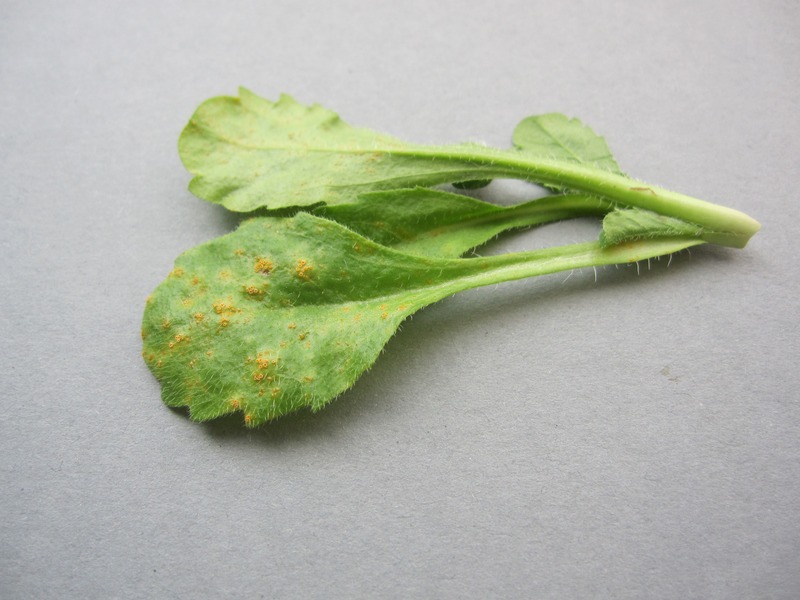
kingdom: Fungi
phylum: Basidiomycota
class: Pucciniomycetes
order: Pucciniales
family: Pucciniaceae
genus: Puccinia
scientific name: Puccinia obscura
